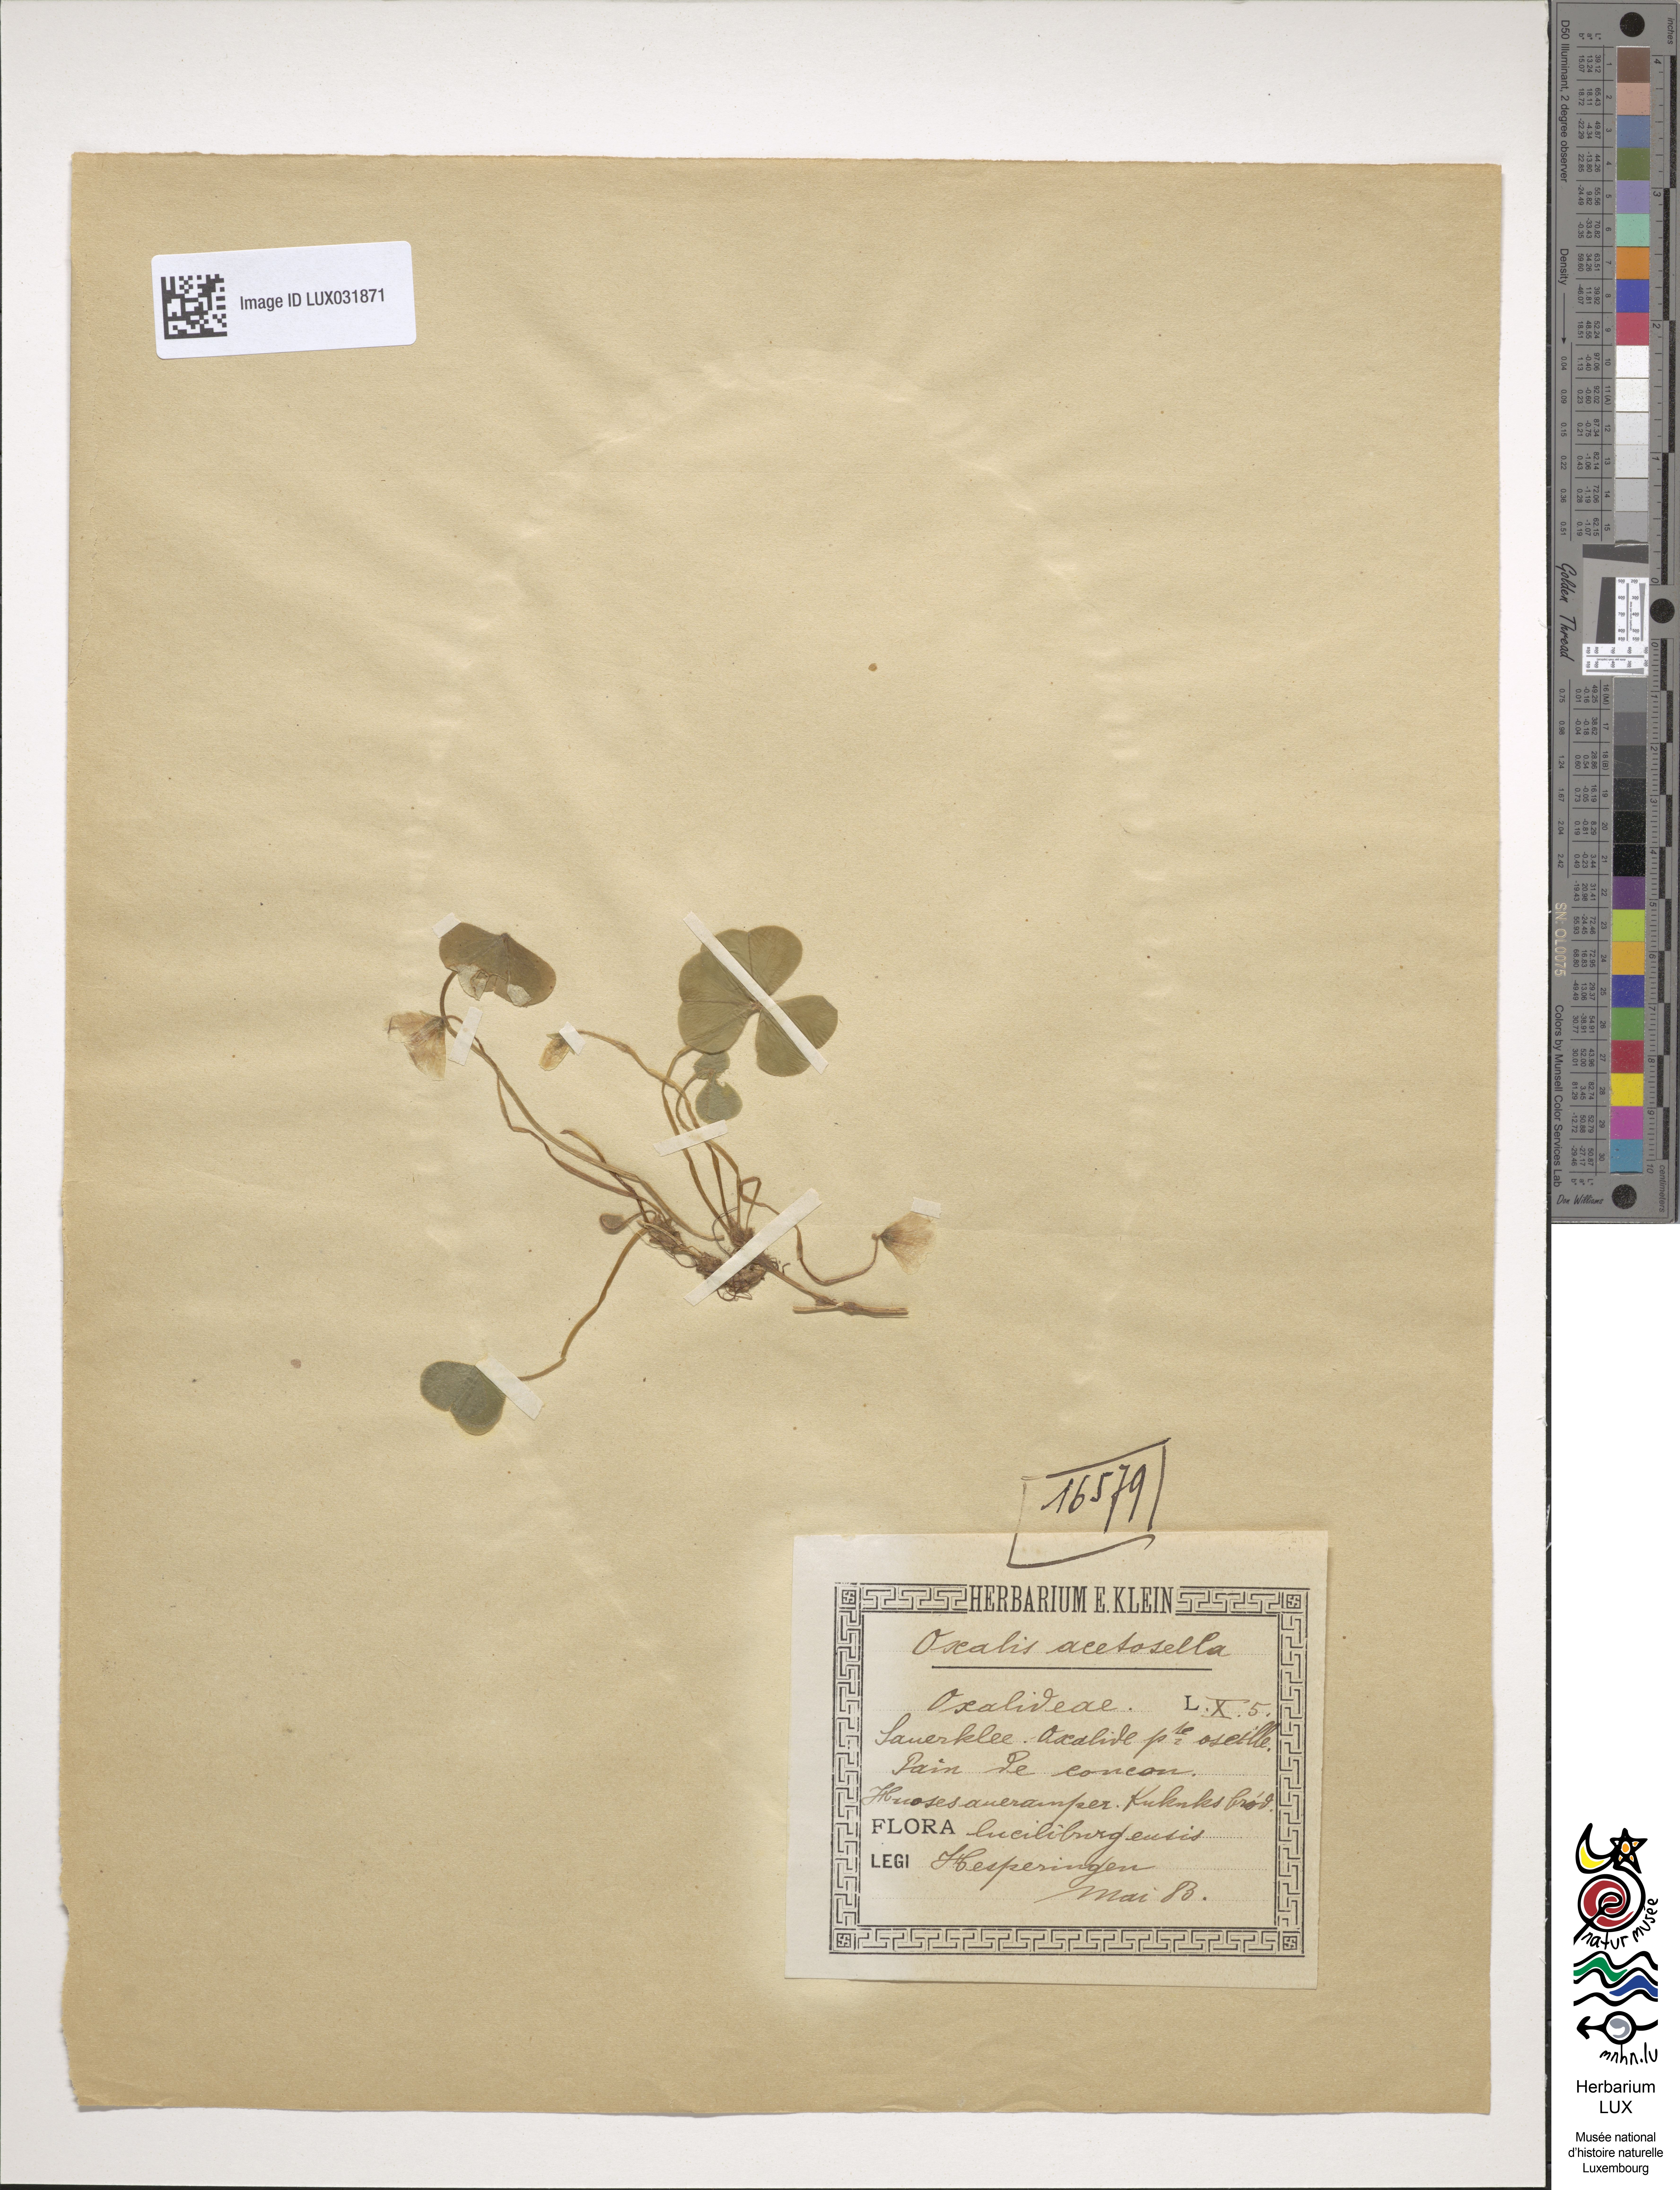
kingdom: Plantae
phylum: Tracheophyta
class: Magnoliopsida
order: Oxalidales
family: Oxalidaceae
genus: Oxalis
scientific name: Oxalis acetosella
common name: Wood-sorrel
